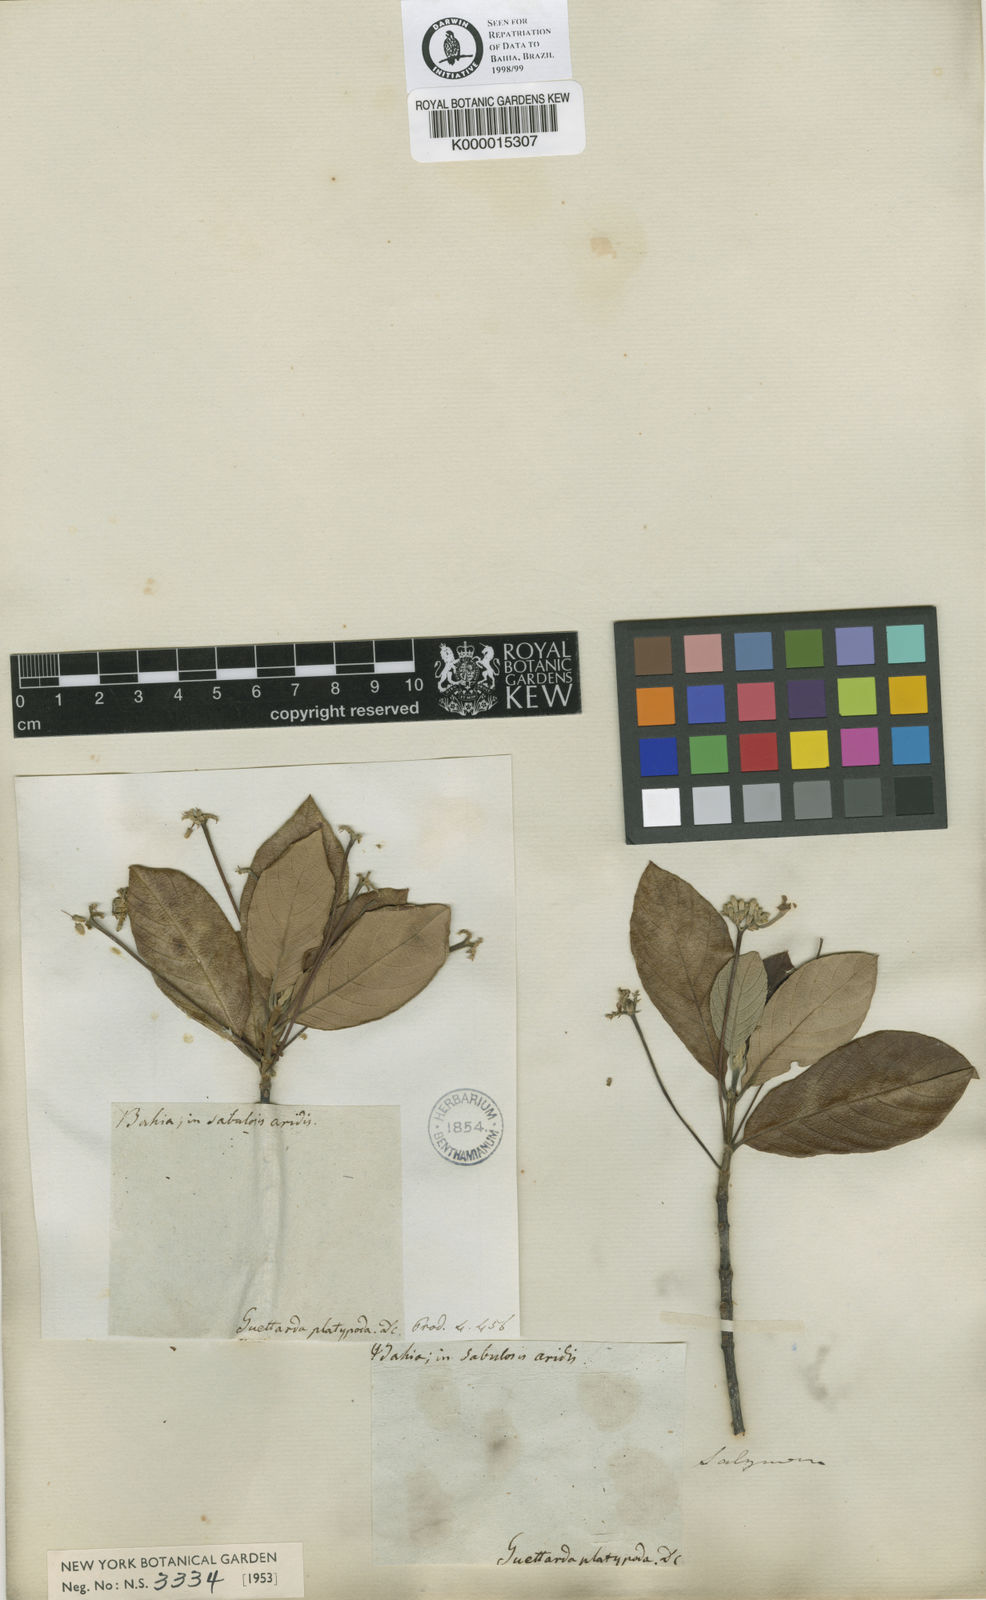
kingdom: Plantae
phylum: Tracheophyta
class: Magnoliopsida
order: Gentianales
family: Rubiaceae
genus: Guettarda
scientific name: Guettarda platypoda
